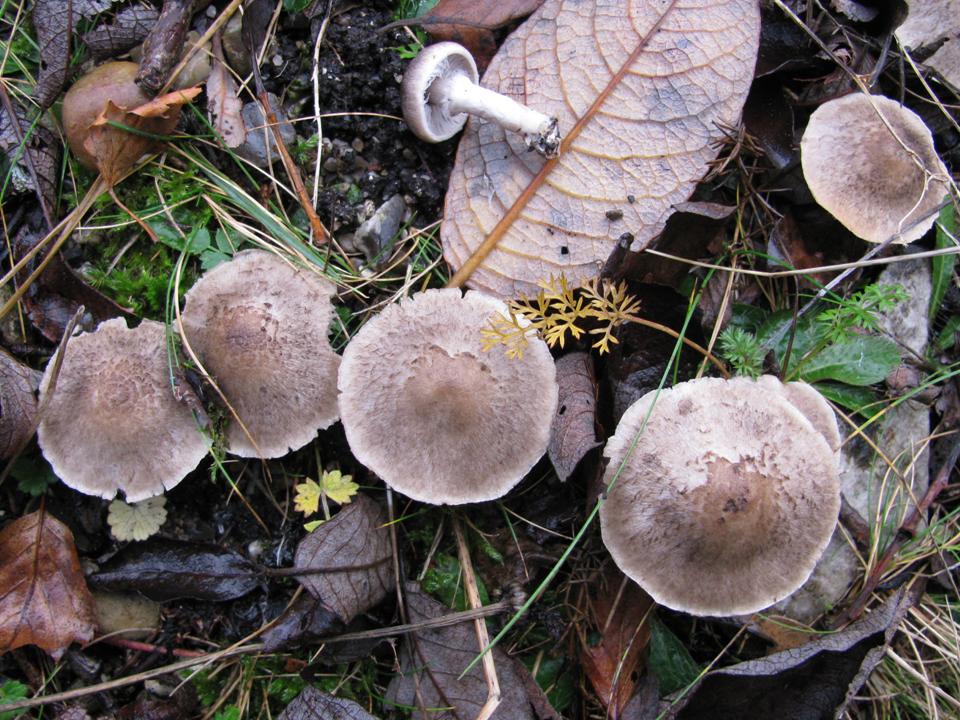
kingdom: Fungi
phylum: Basidiomycota
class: Agaricomycetes
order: Agaricales
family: Tricholomataceae
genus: Tricholoma
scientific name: Tricholoma cingulatum
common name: ring-ridderhat
